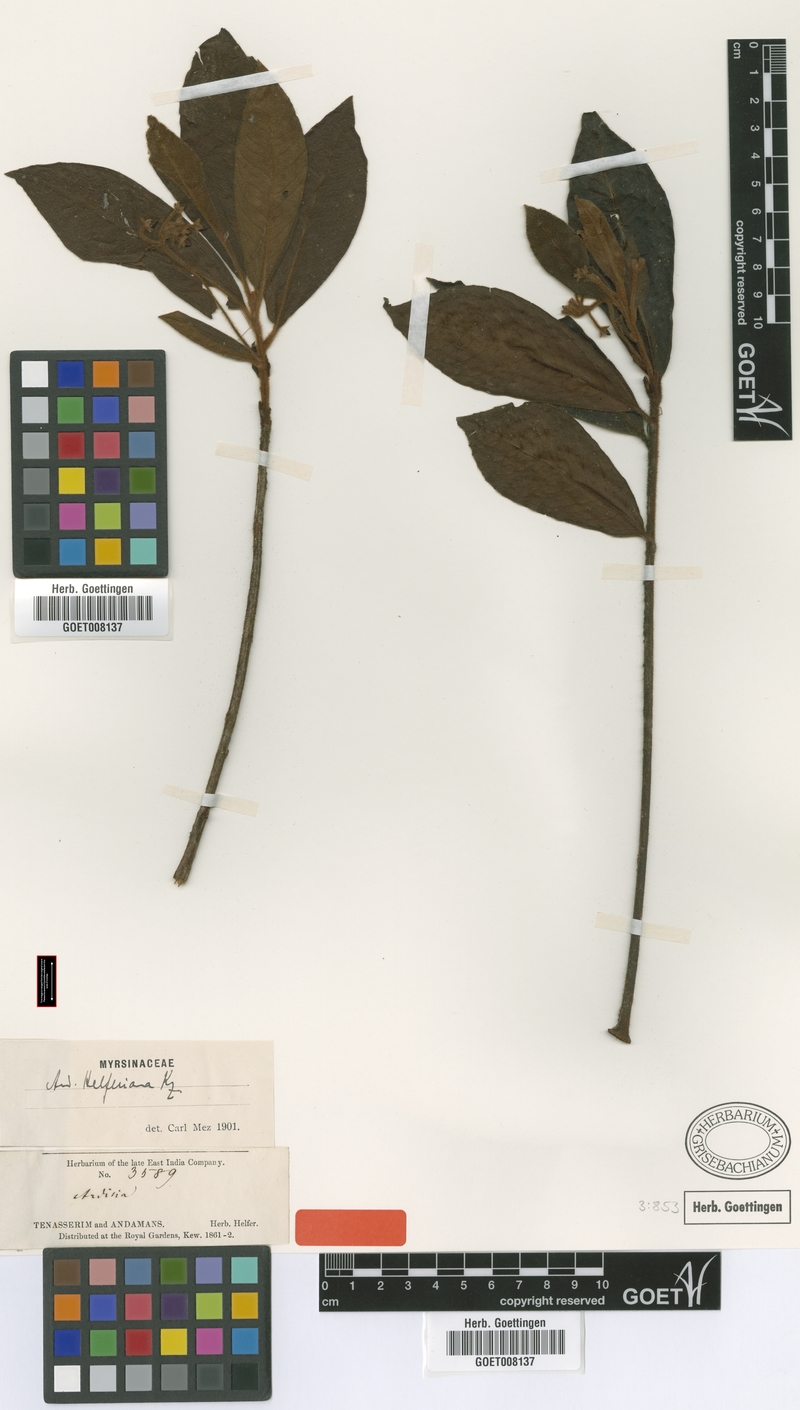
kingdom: Plantae
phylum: Tracheophyta
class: Magnoliopsida
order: Ericales
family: Primulaceae
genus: Ardisia
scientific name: Ardisia helferiana
